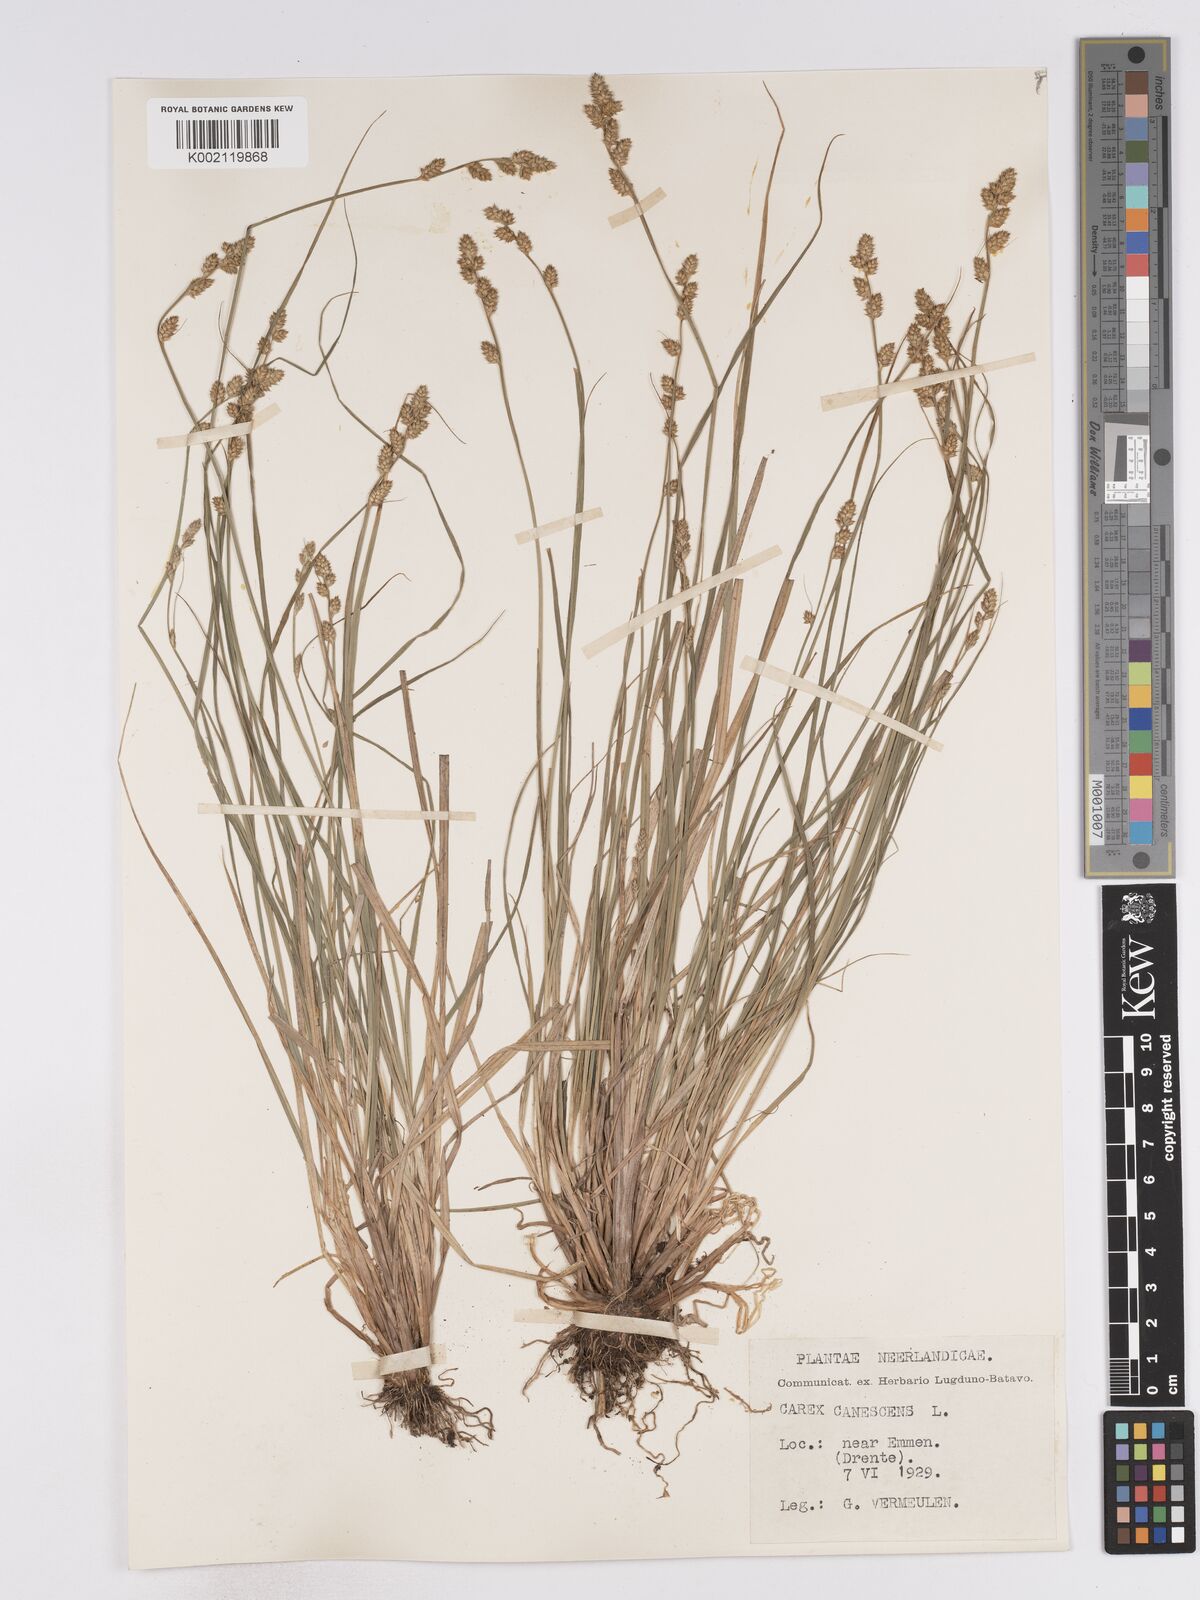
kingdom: Plantae
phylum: Tracheophyta
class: Liliopsida
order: Poales
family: Cyperaceae
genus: Carex
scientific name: Carex curta
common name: White sedge
